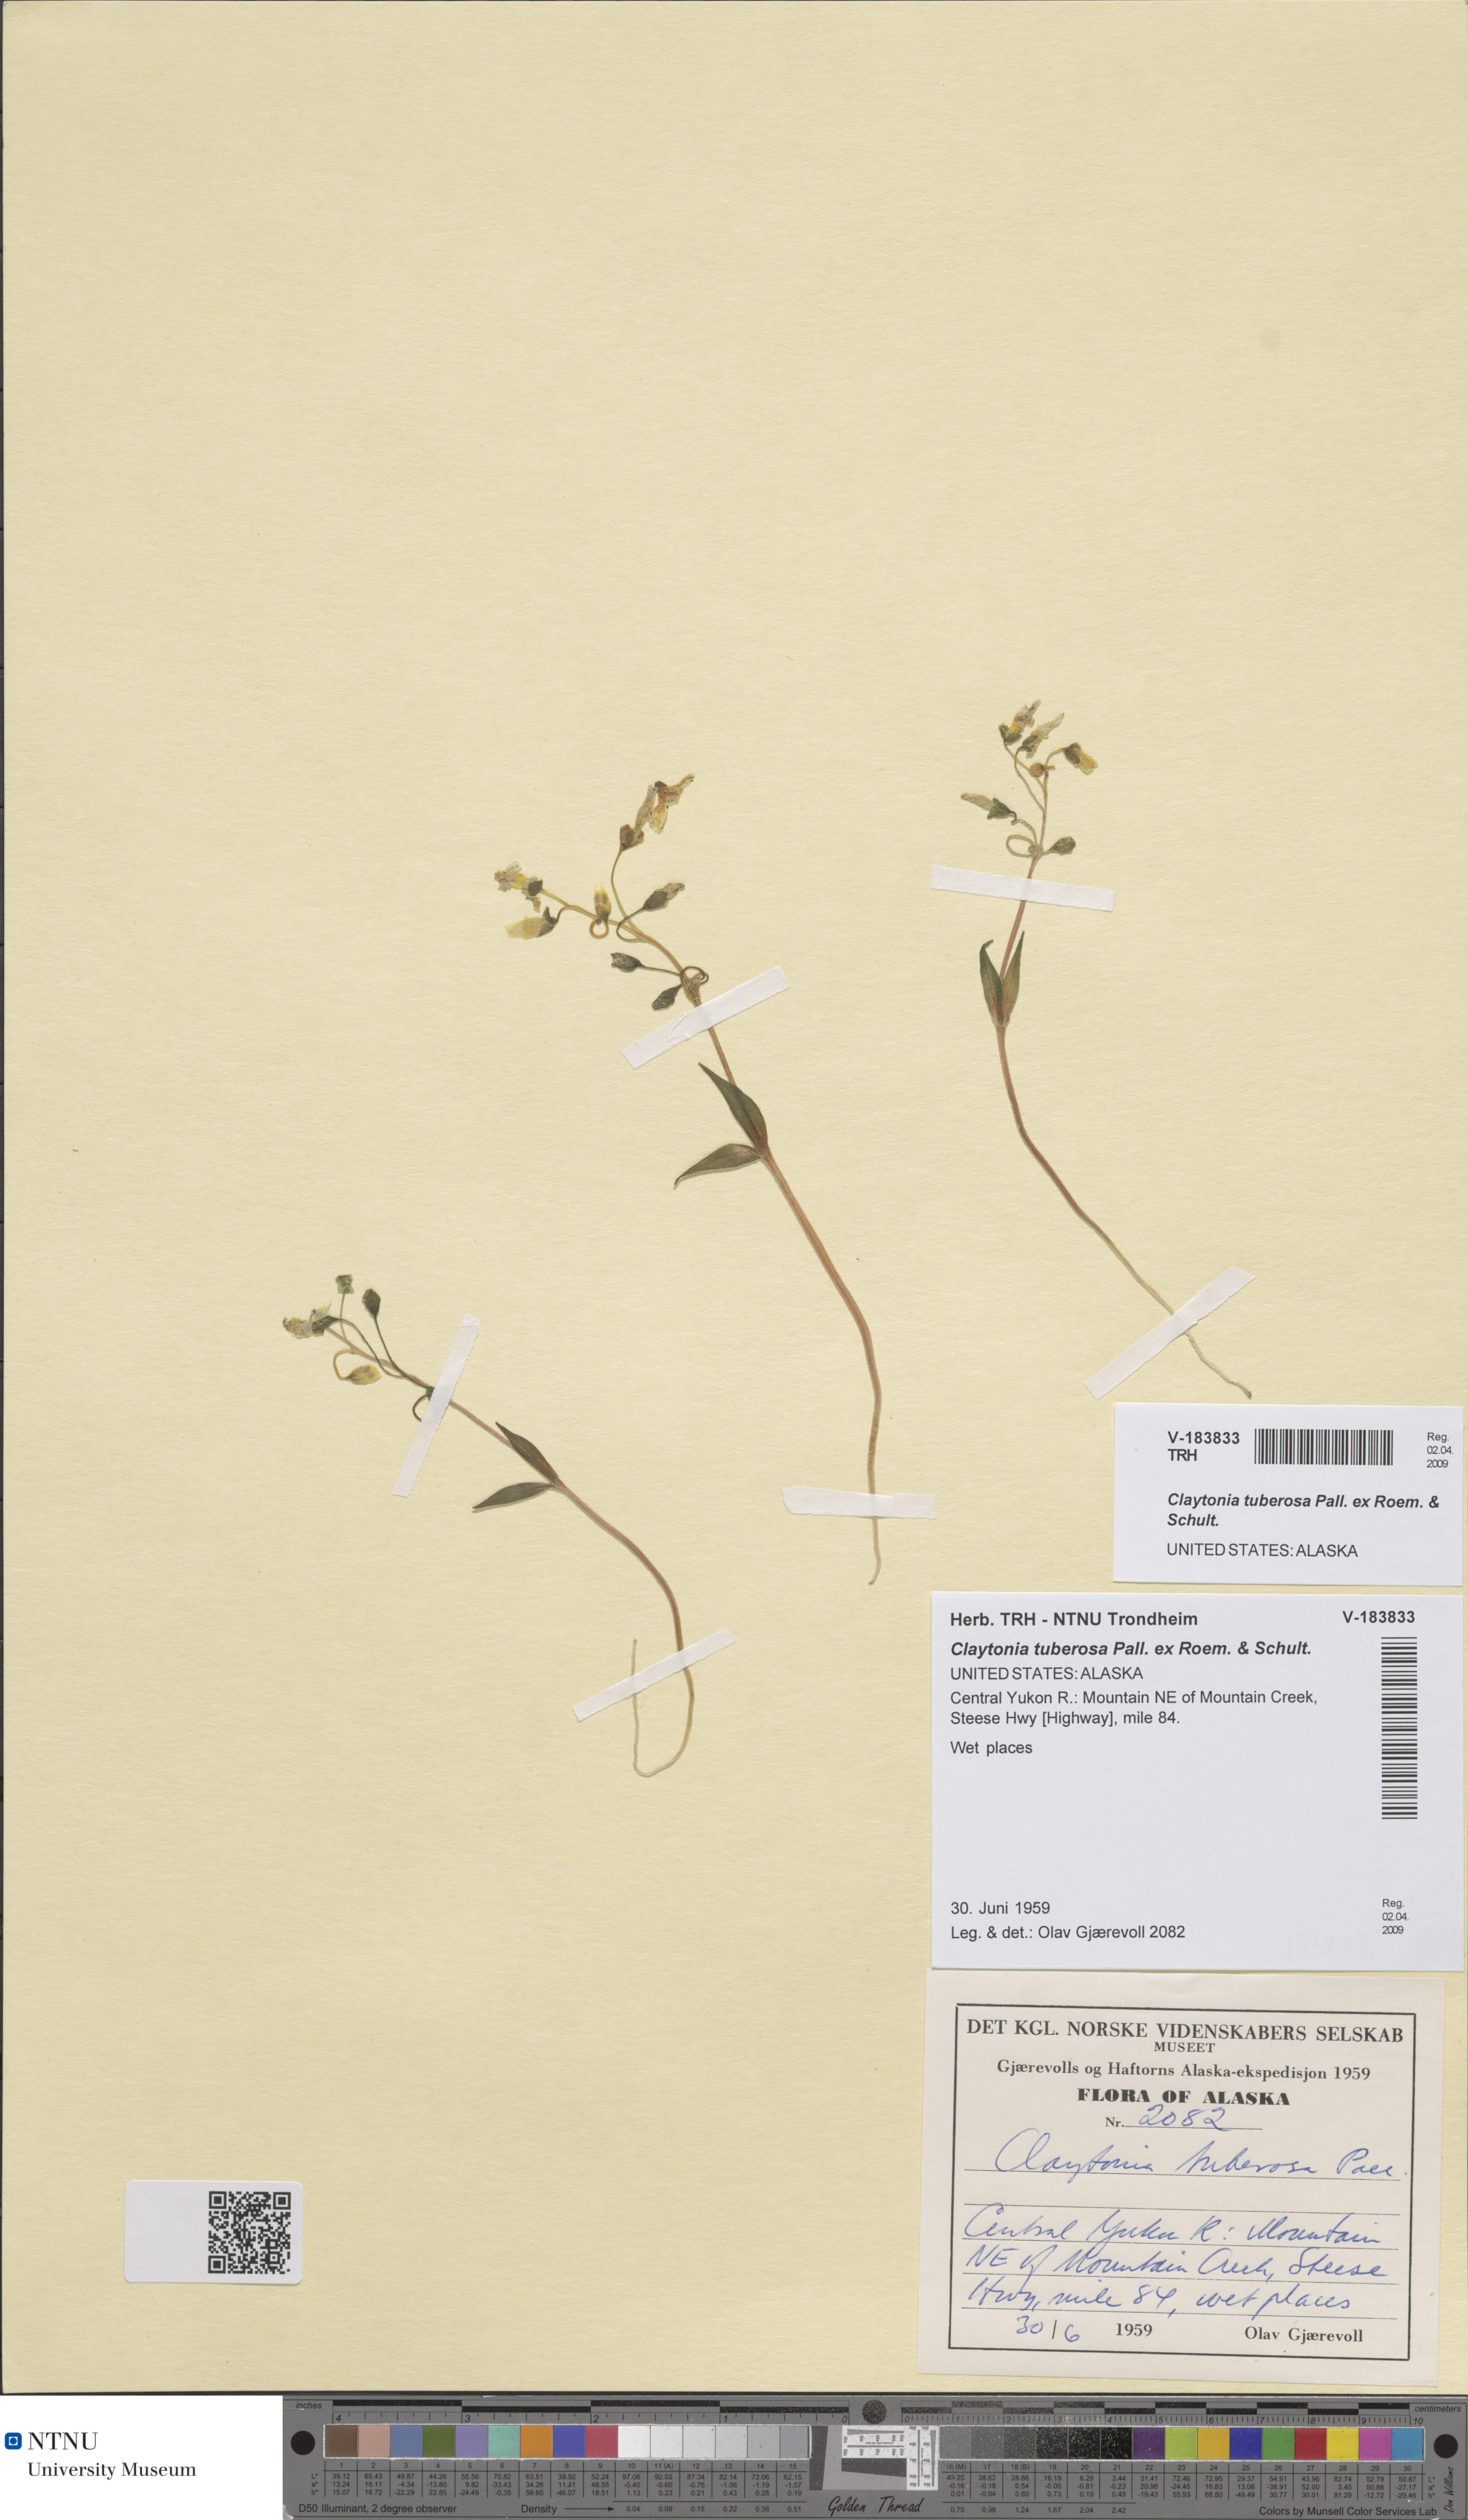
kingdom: Plantae
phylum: Tracheophyta
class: Magnoliopsida
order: Caryophyllales
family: Montiaceae
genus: Claytonia
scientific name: Claytonia tuberosa
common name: Beringian spring beauty
